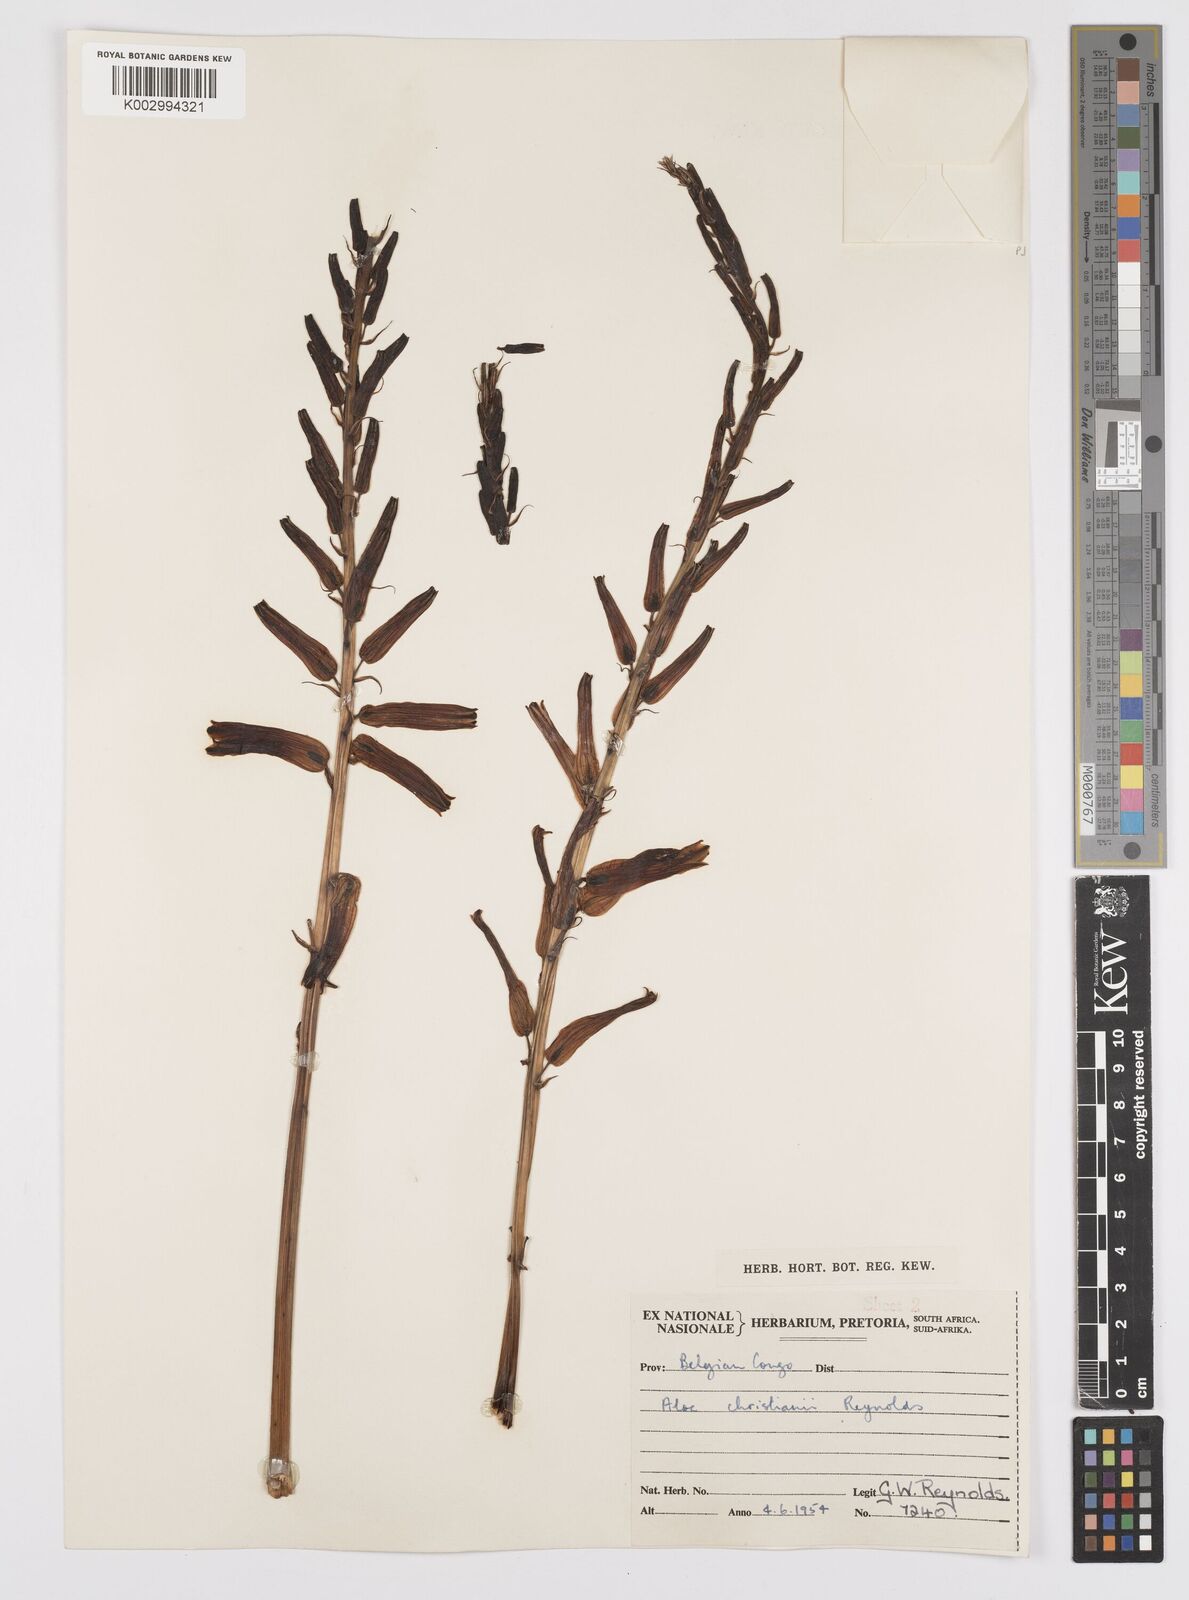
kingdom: Plantae
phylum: Tracheophyta
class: Liliopsida
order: Asparagales
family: Asphodelaceae
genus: Aloe
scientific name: Aloe christianii
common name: Basil christian's aloe
